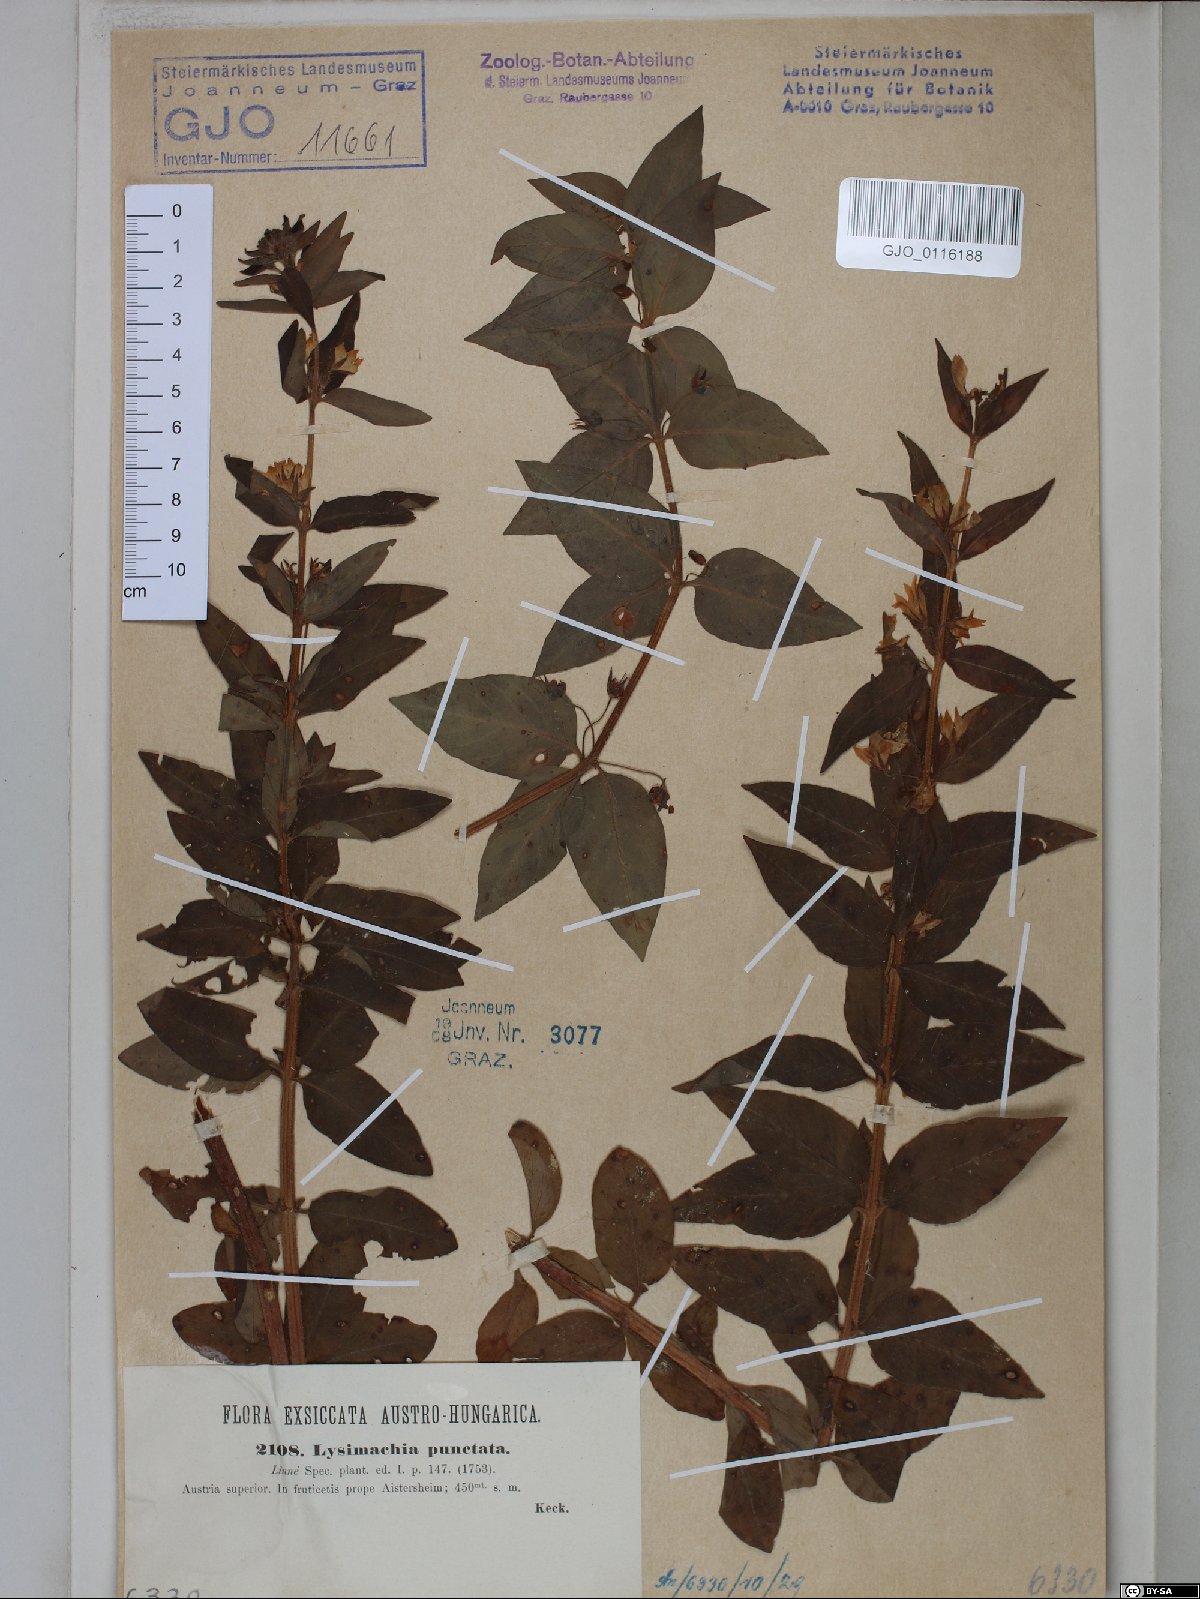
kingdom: Plantae
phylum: Tracheophyta
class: Magnoliopsida
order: Ericales
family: Primulaceae
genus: Lysimachia
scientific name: Lysimachia punctata
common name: Dotted loosestrife
